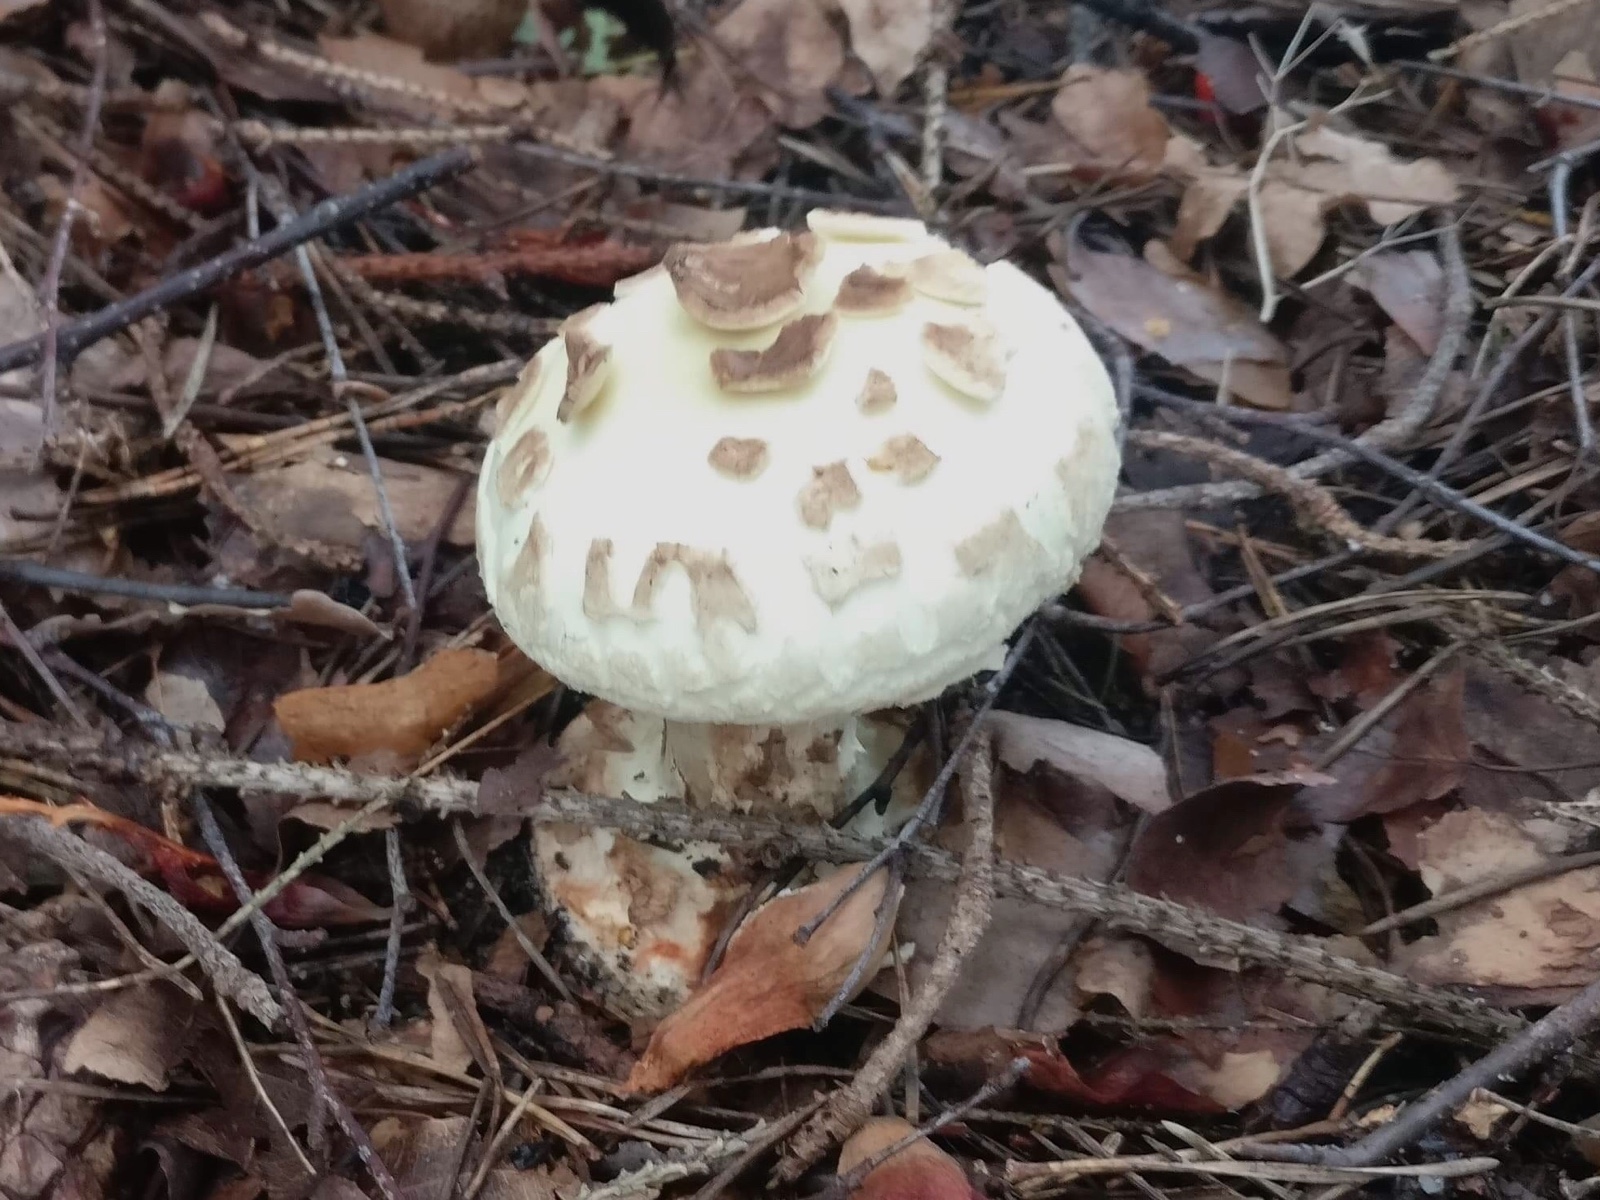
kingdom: Fungi
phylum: Basidiomycota
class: Agaricomycetes
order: Agaricales
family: Amanitaceae
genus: Amanita
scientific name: Amanita citrina
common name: False death-cap
